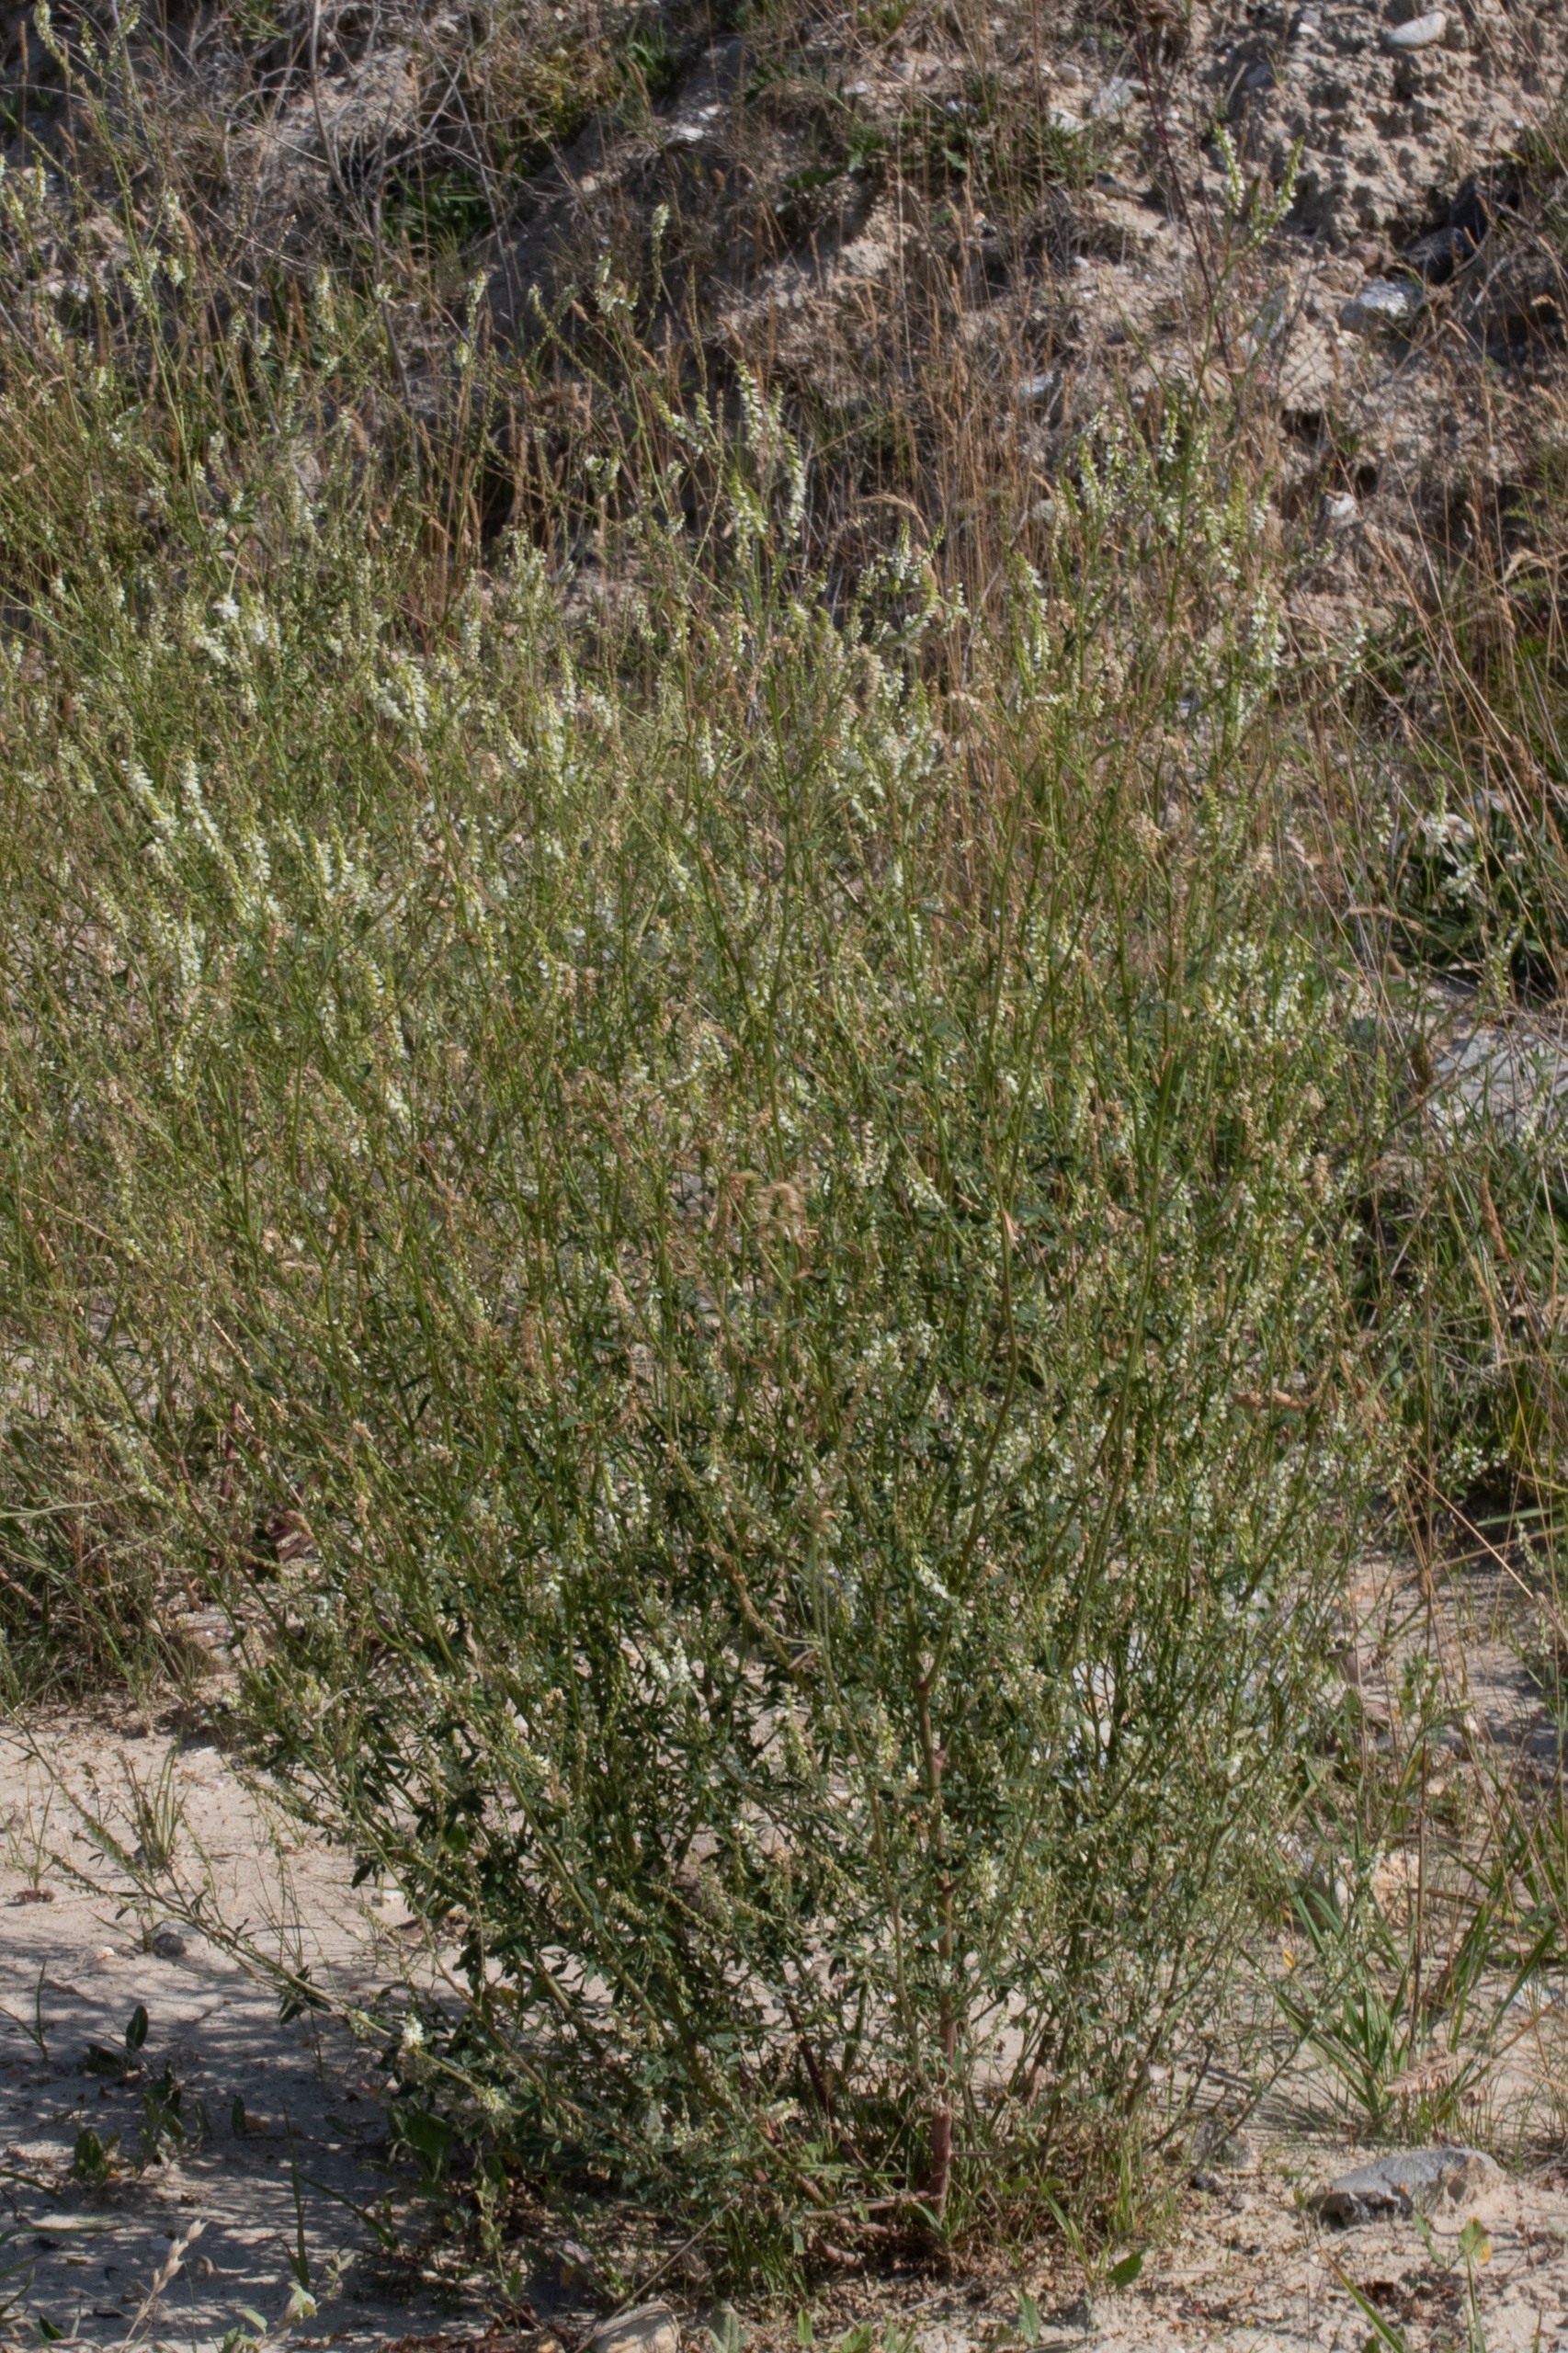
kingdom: Plantae
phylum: Tracheophyta
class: Magnoliopsida
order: Fabales
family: Fabaceae
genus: Melilotus
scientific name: Melilotus albus
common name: Hvid stenkløver
